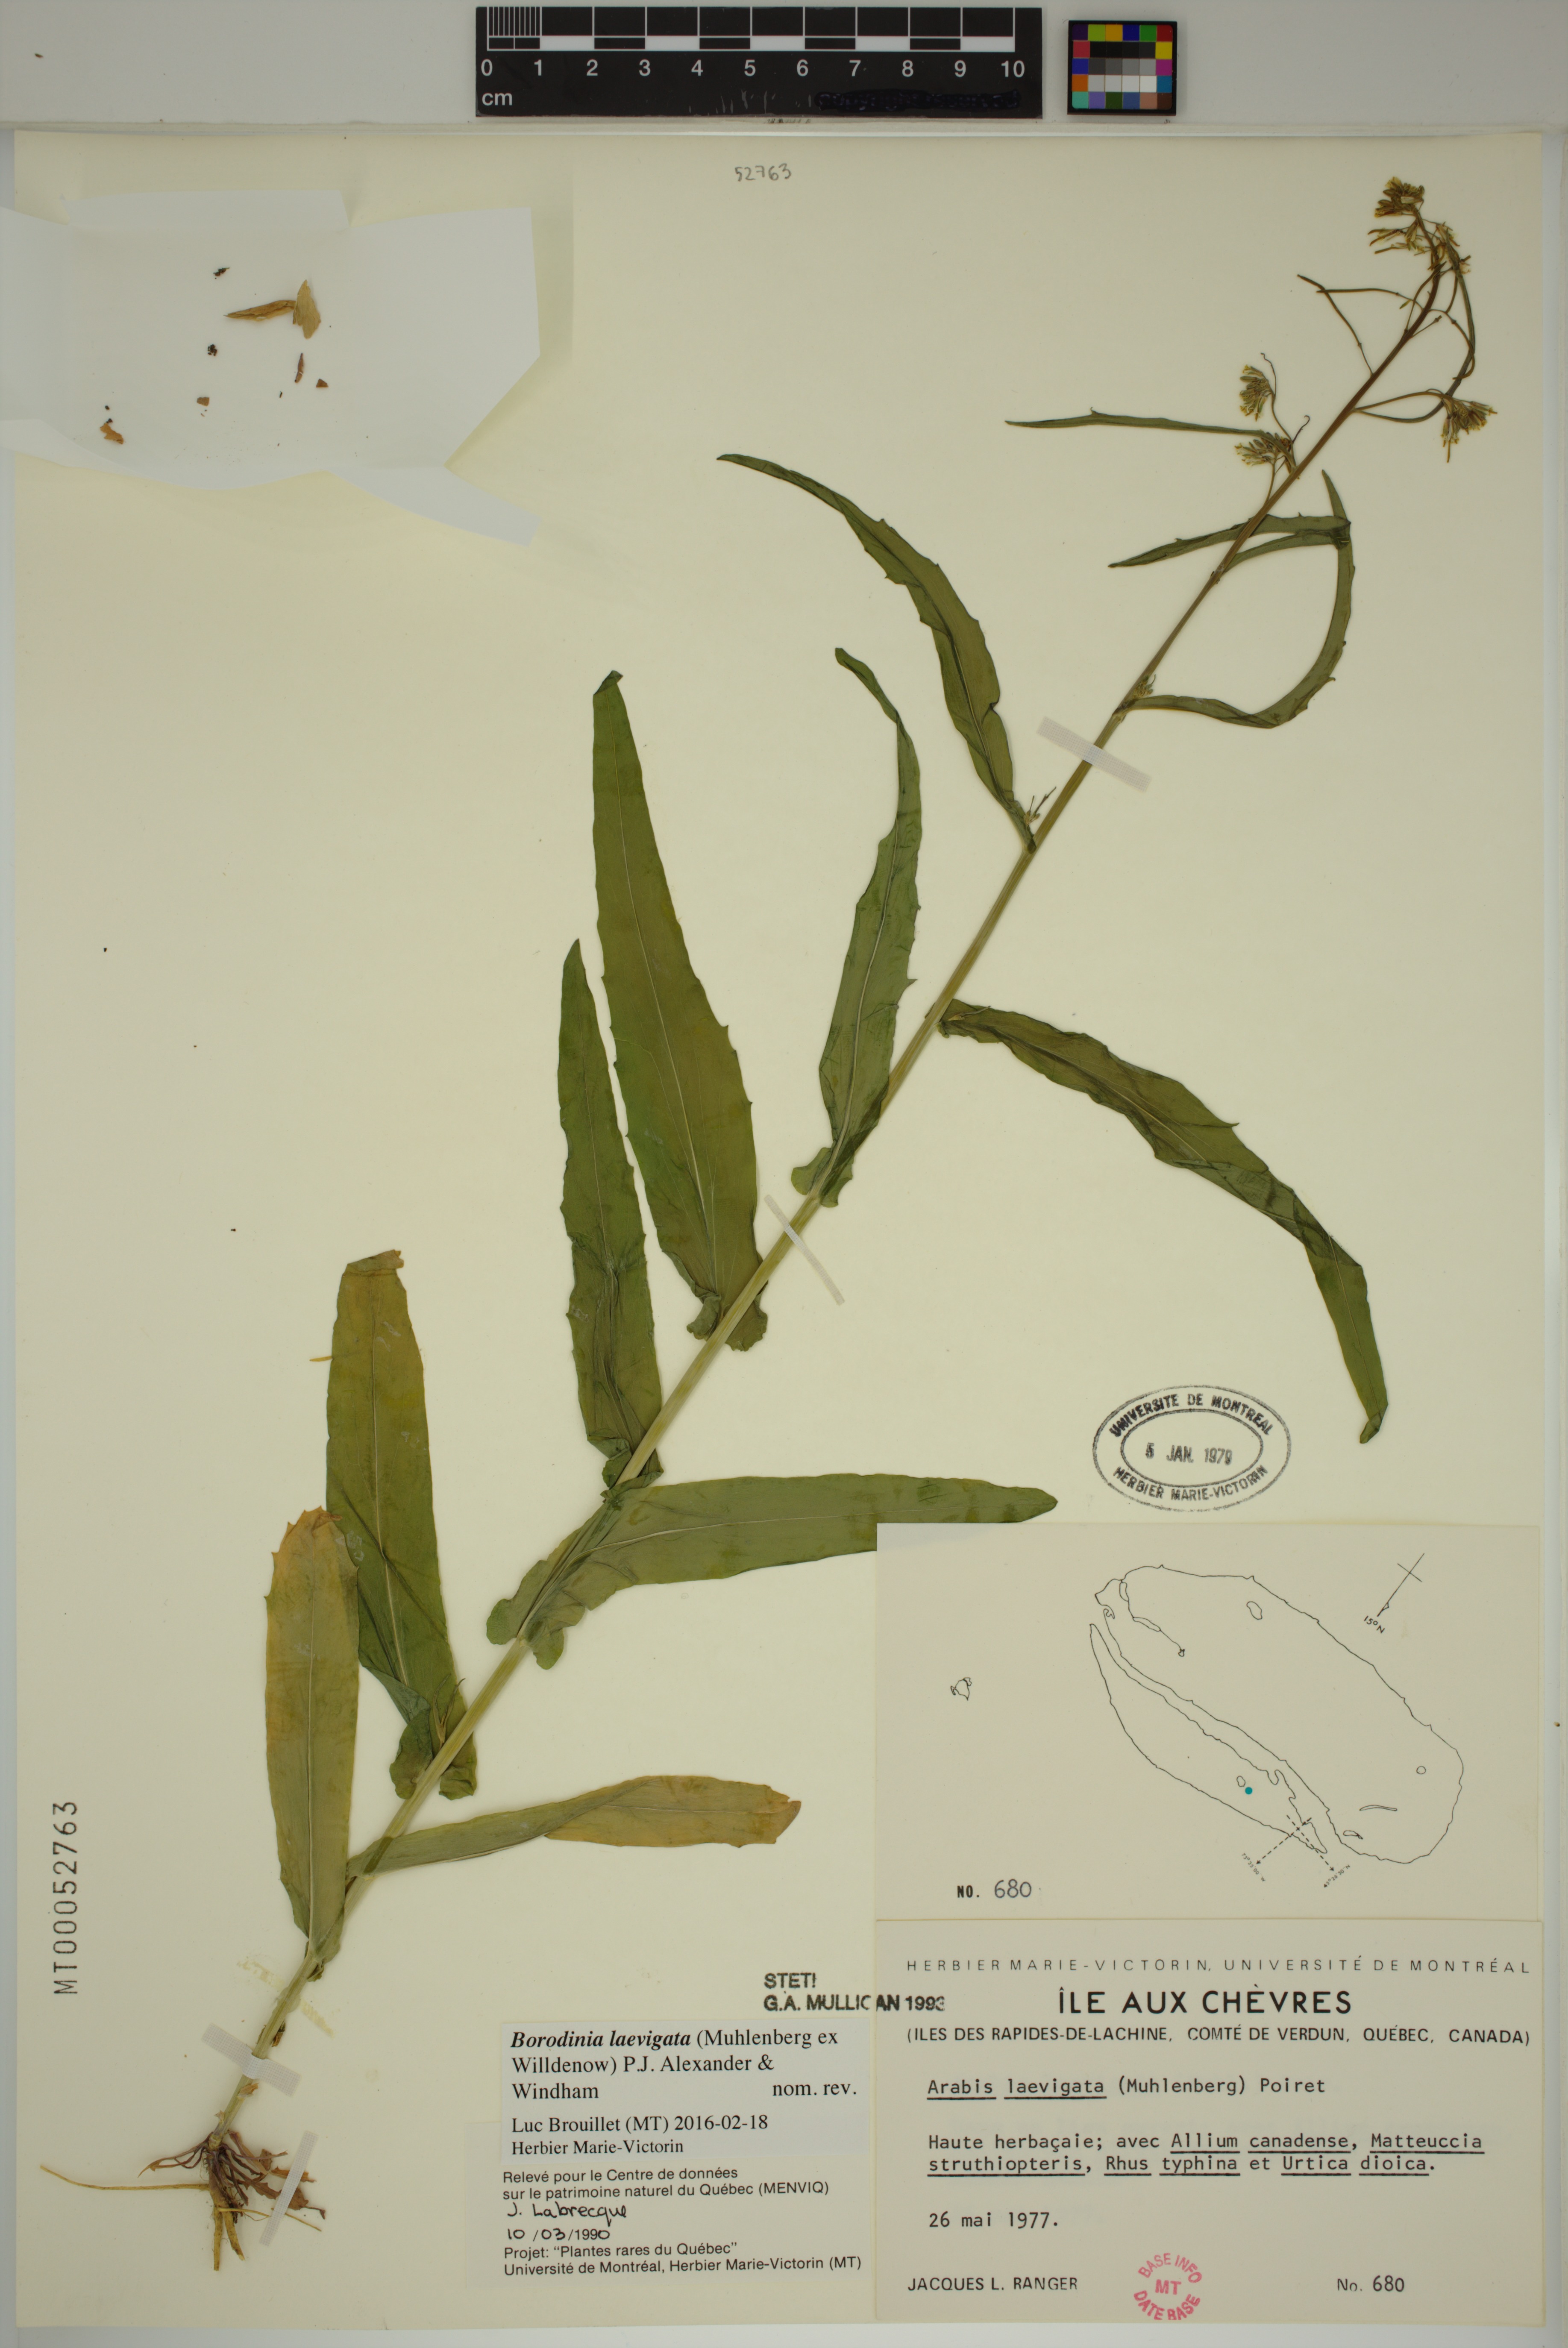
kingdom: Plantae
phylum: Tracheophyta
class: Magnoliopsida
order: Brassicales
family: Brassicaceae
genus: Borodinia
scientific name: Borodinia laevigata
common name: Smooth rockcress
